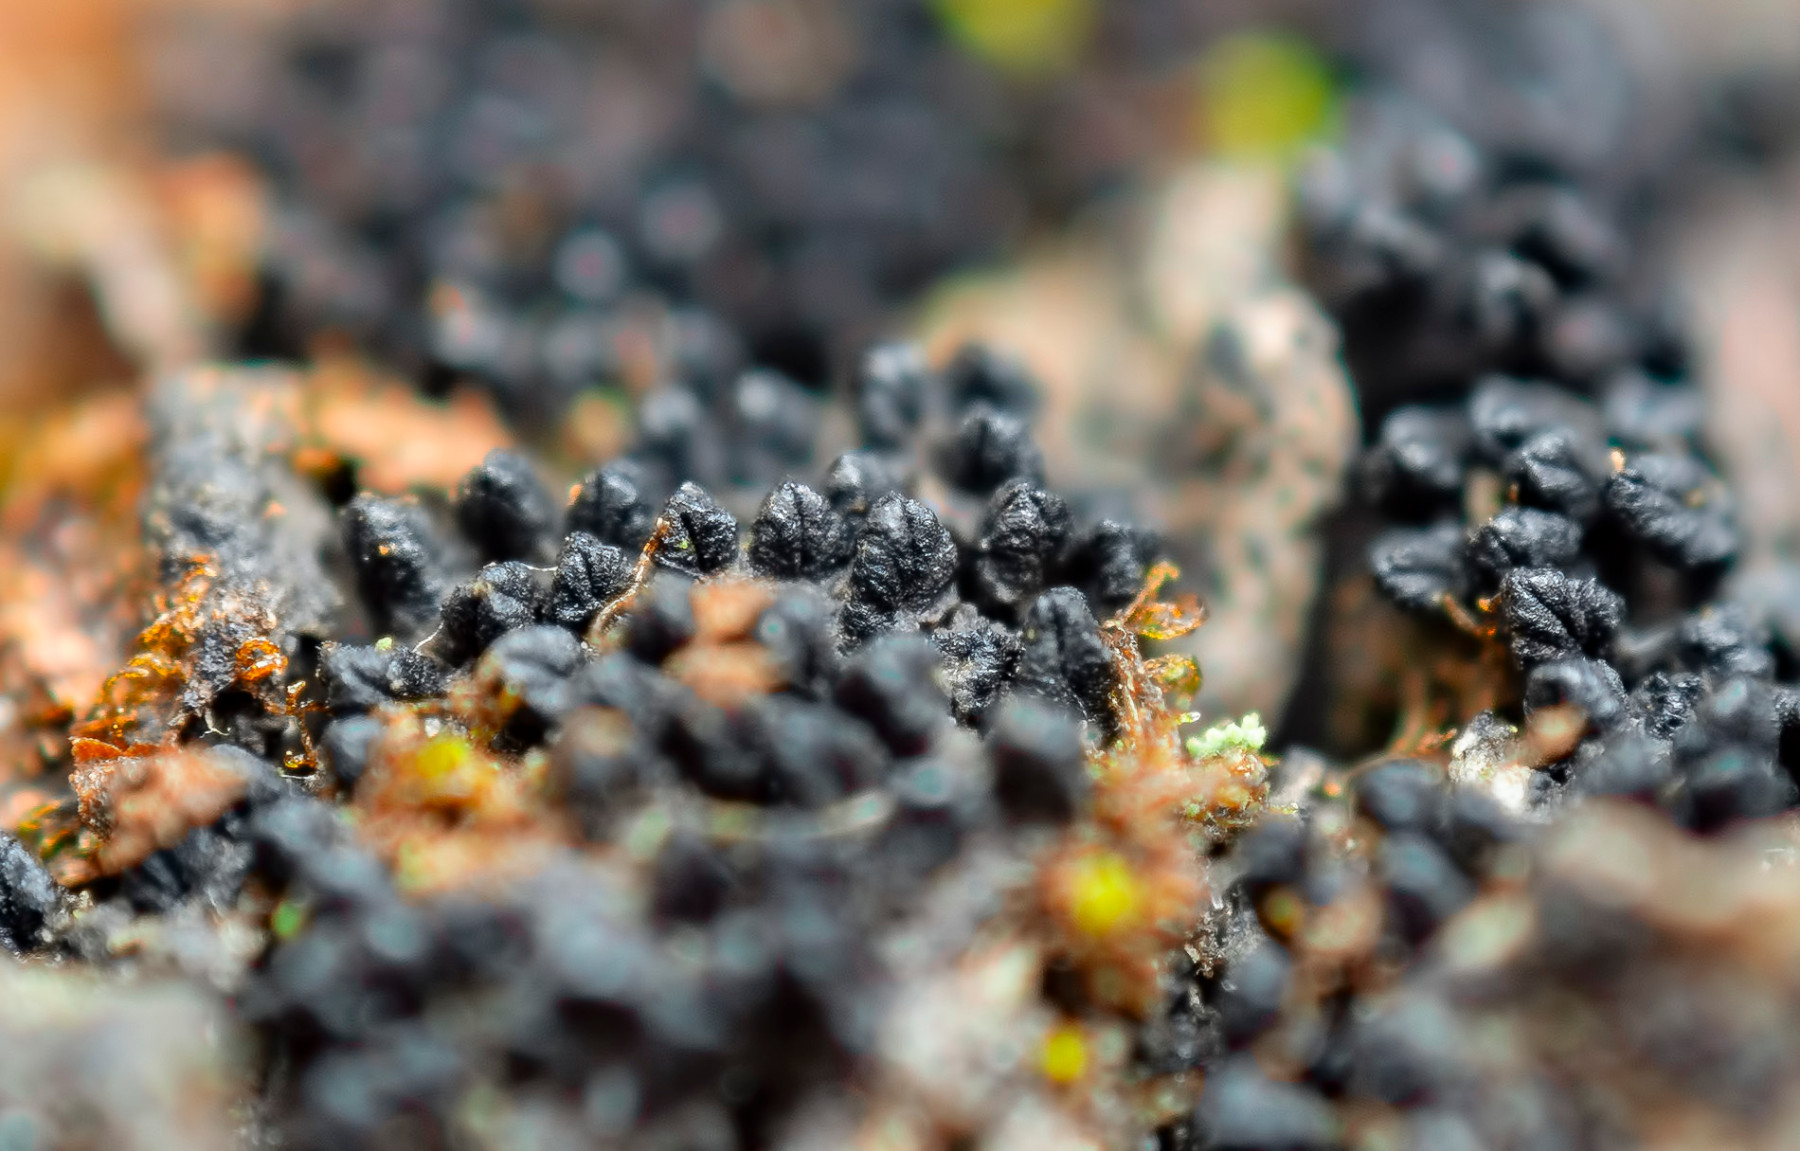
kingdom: Fungi
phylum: Ascomycota
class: Sordariomycetes
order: Xylariales
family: Diatrypaceae
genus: Eutypella
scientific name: Eutypella prunastri
